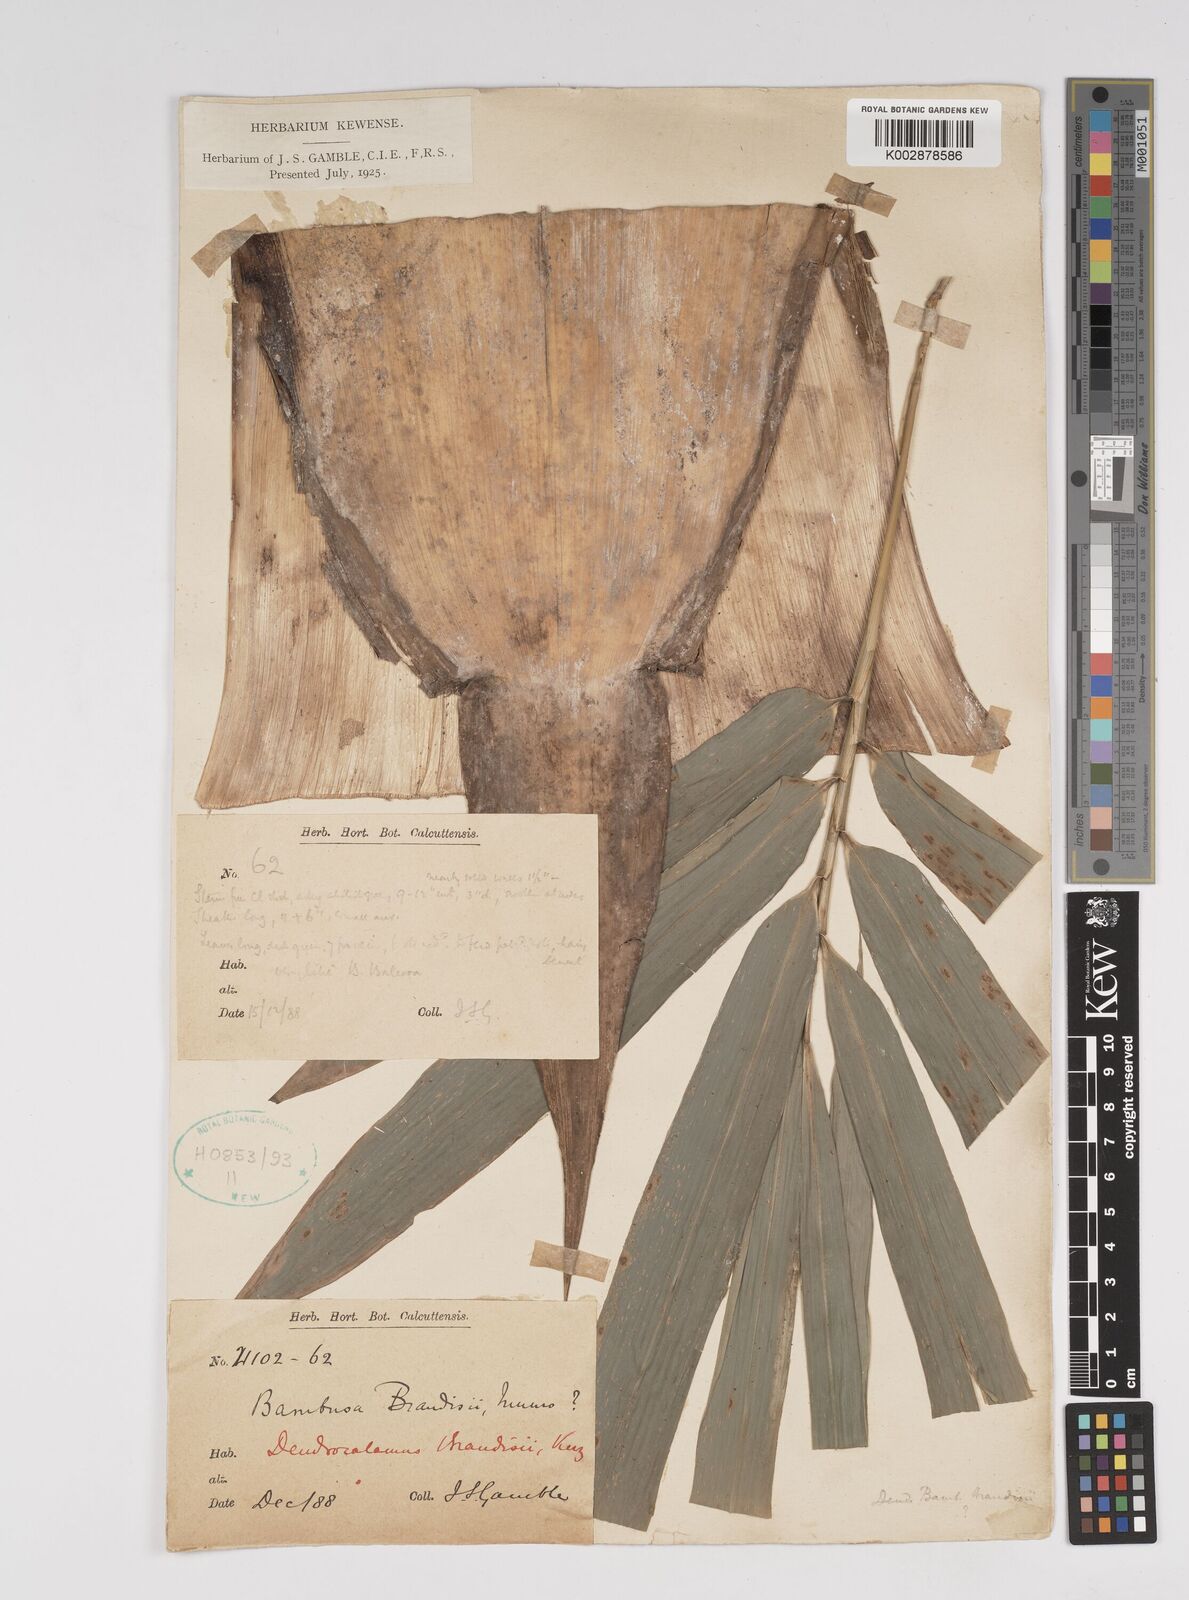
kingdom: Plantae
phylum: Tracheophyta
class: Liliopsida
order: Poales
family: Poaceae
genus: Dendrocalamus
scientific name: Dendrocalamus brandisii
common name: Velvetleaf bamboo
